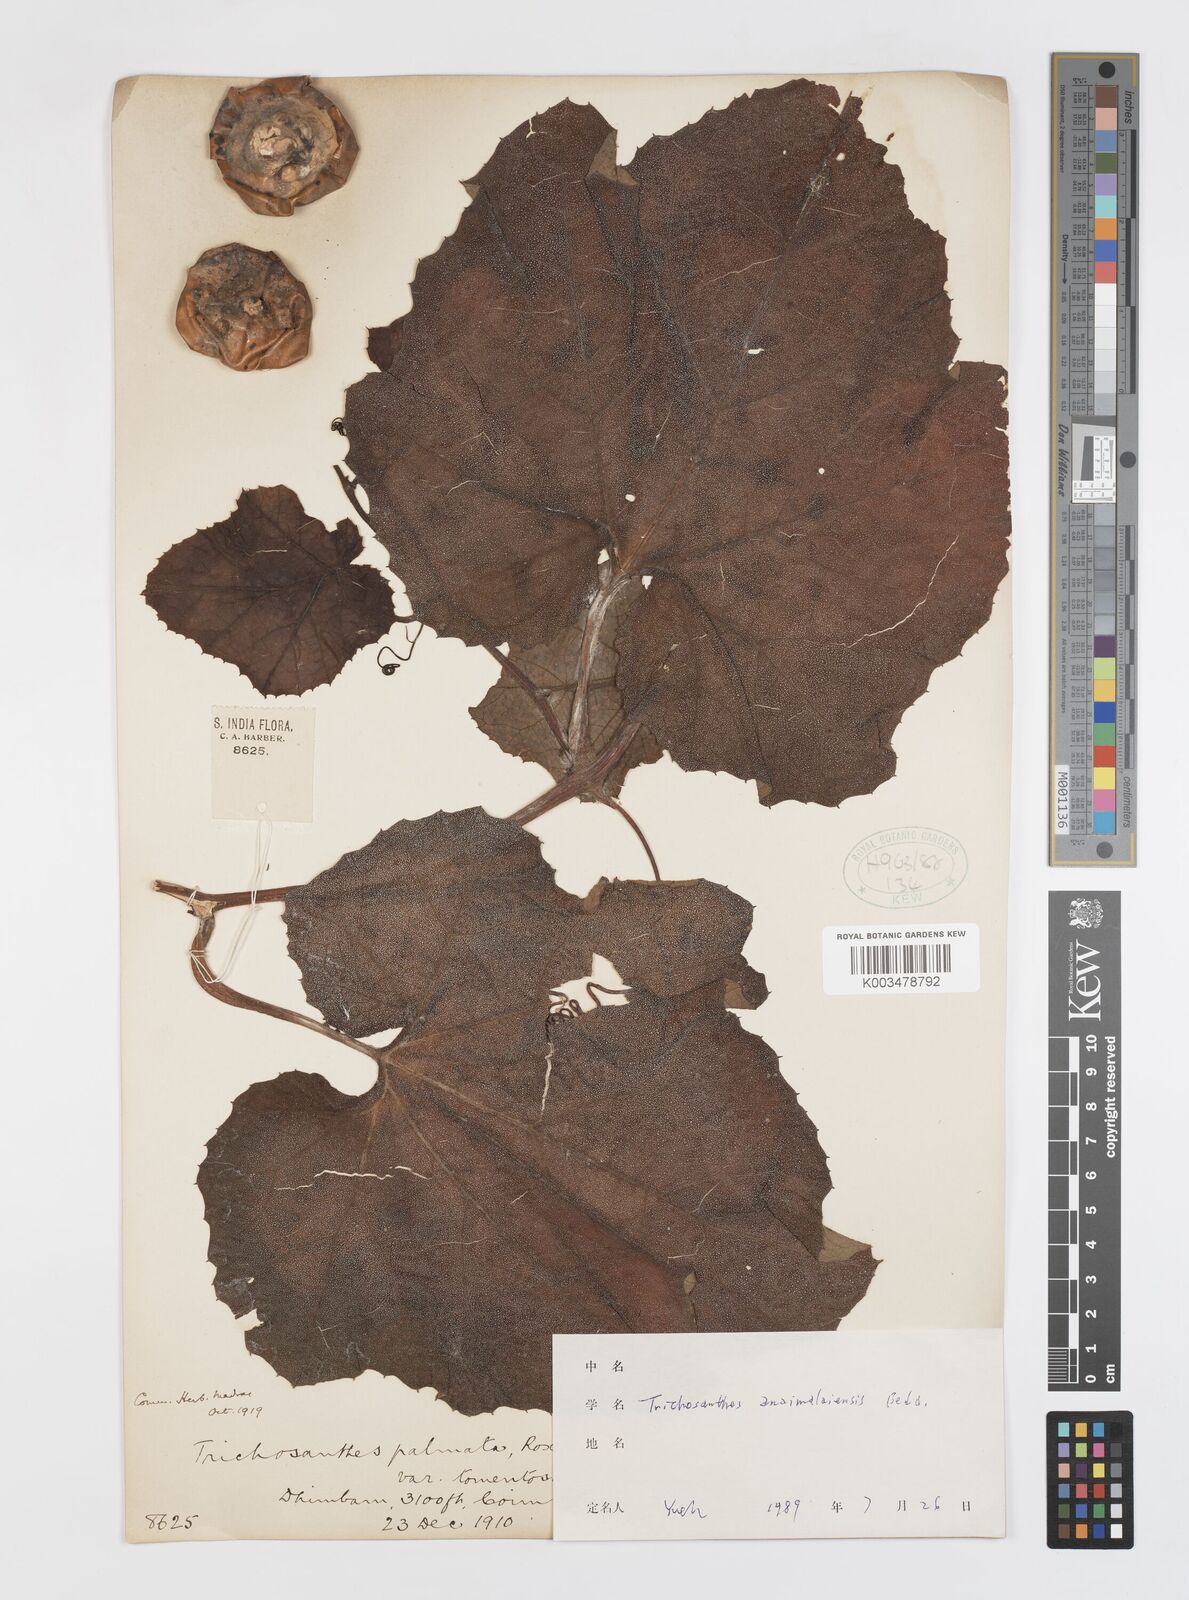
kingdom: Plantae
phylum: Tracheophyta
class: Magnoliopsida
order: Cucurbitales
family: Cucurbitaceae
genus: Trichosanthes
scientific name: Trichosanthes anaimalaiensis
